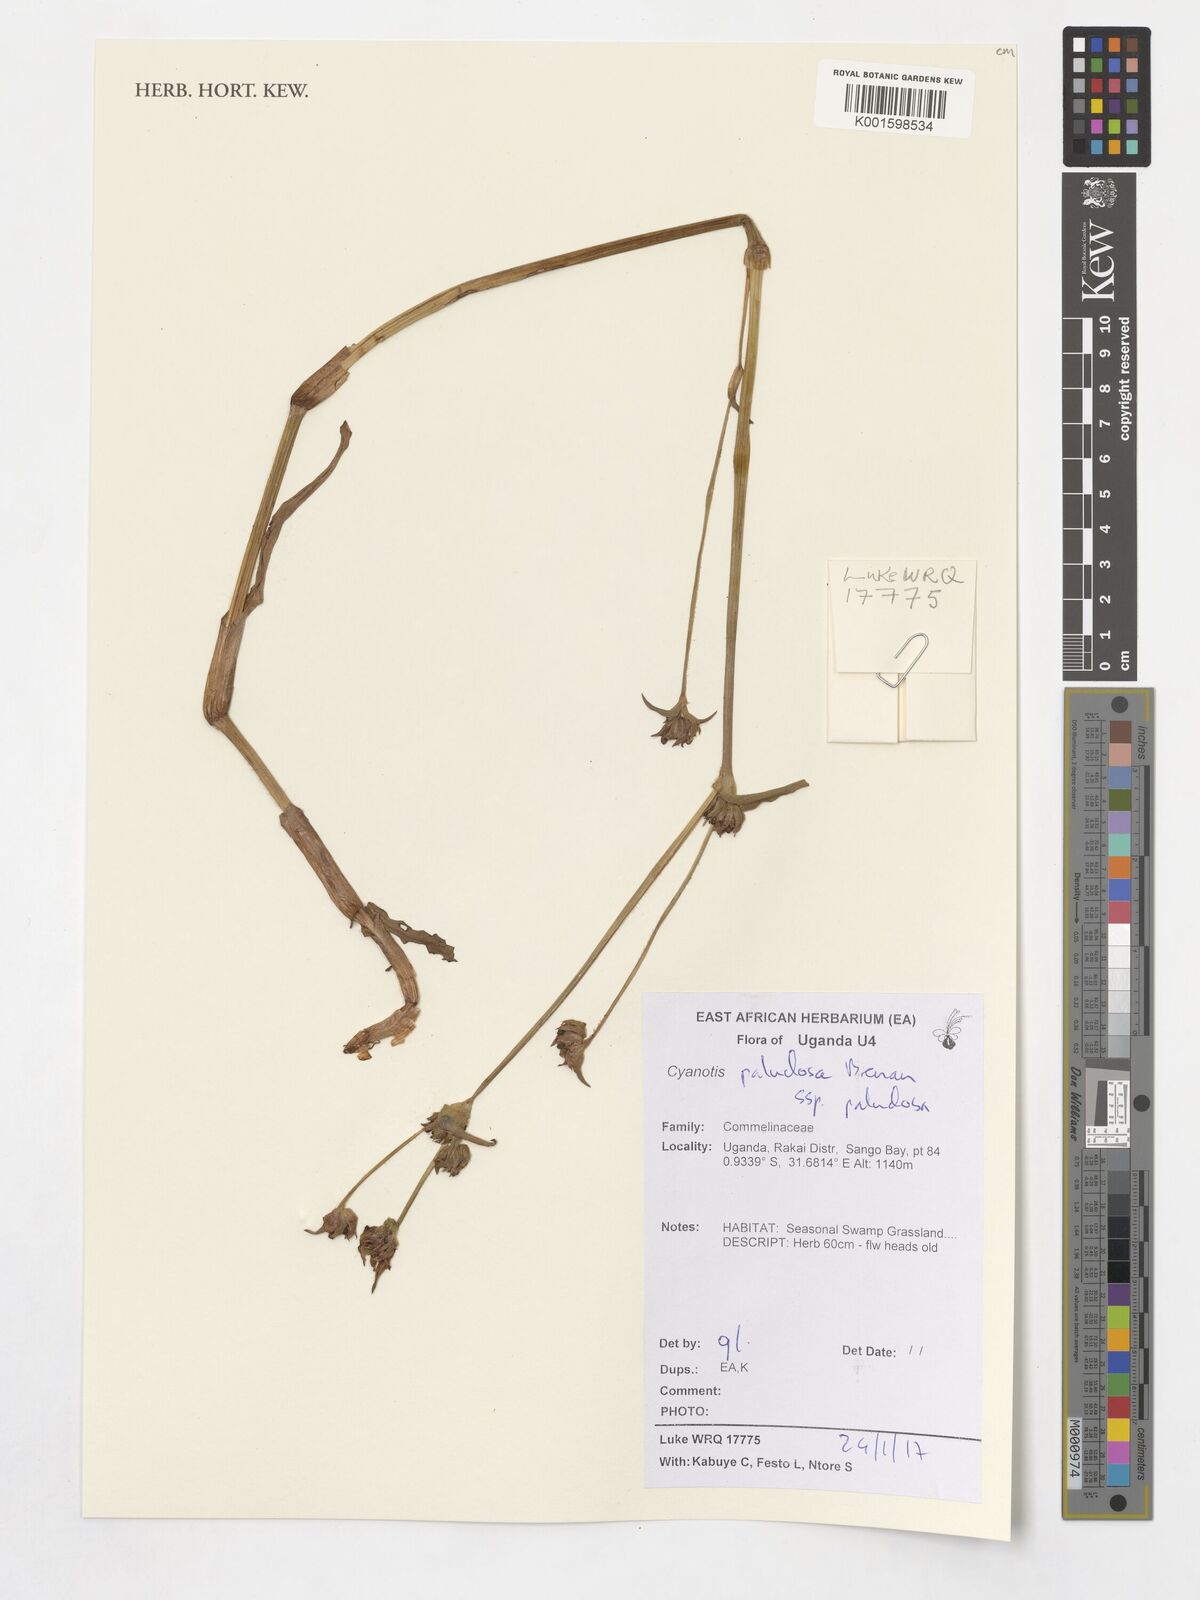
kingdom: Plantae
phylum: Tracheophyta
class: Liliopsida
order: Commelinales
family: Commelinaceae
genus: Cyanotis
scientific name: Cyanotis paludosa
